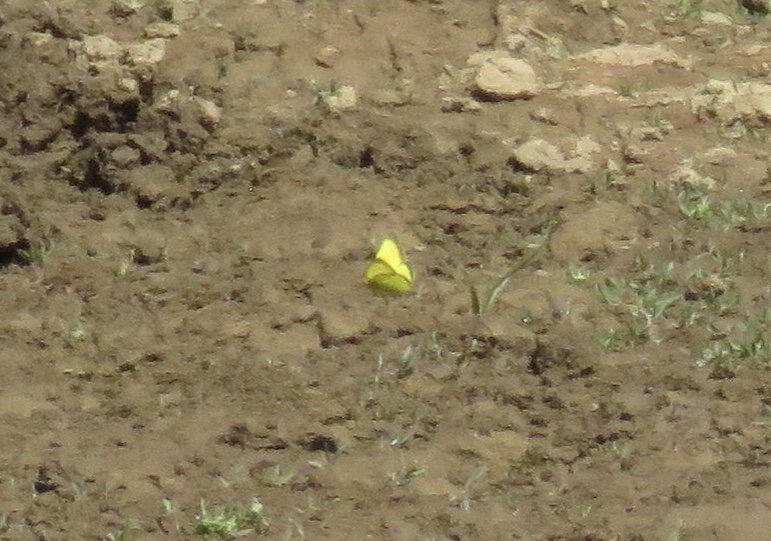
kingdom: Animalia
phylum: Arthropoda
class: Insecta
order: Lepidoptera
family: Pieridae
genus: Colias
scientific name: Colias philodice
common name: Clouded Sulphur
